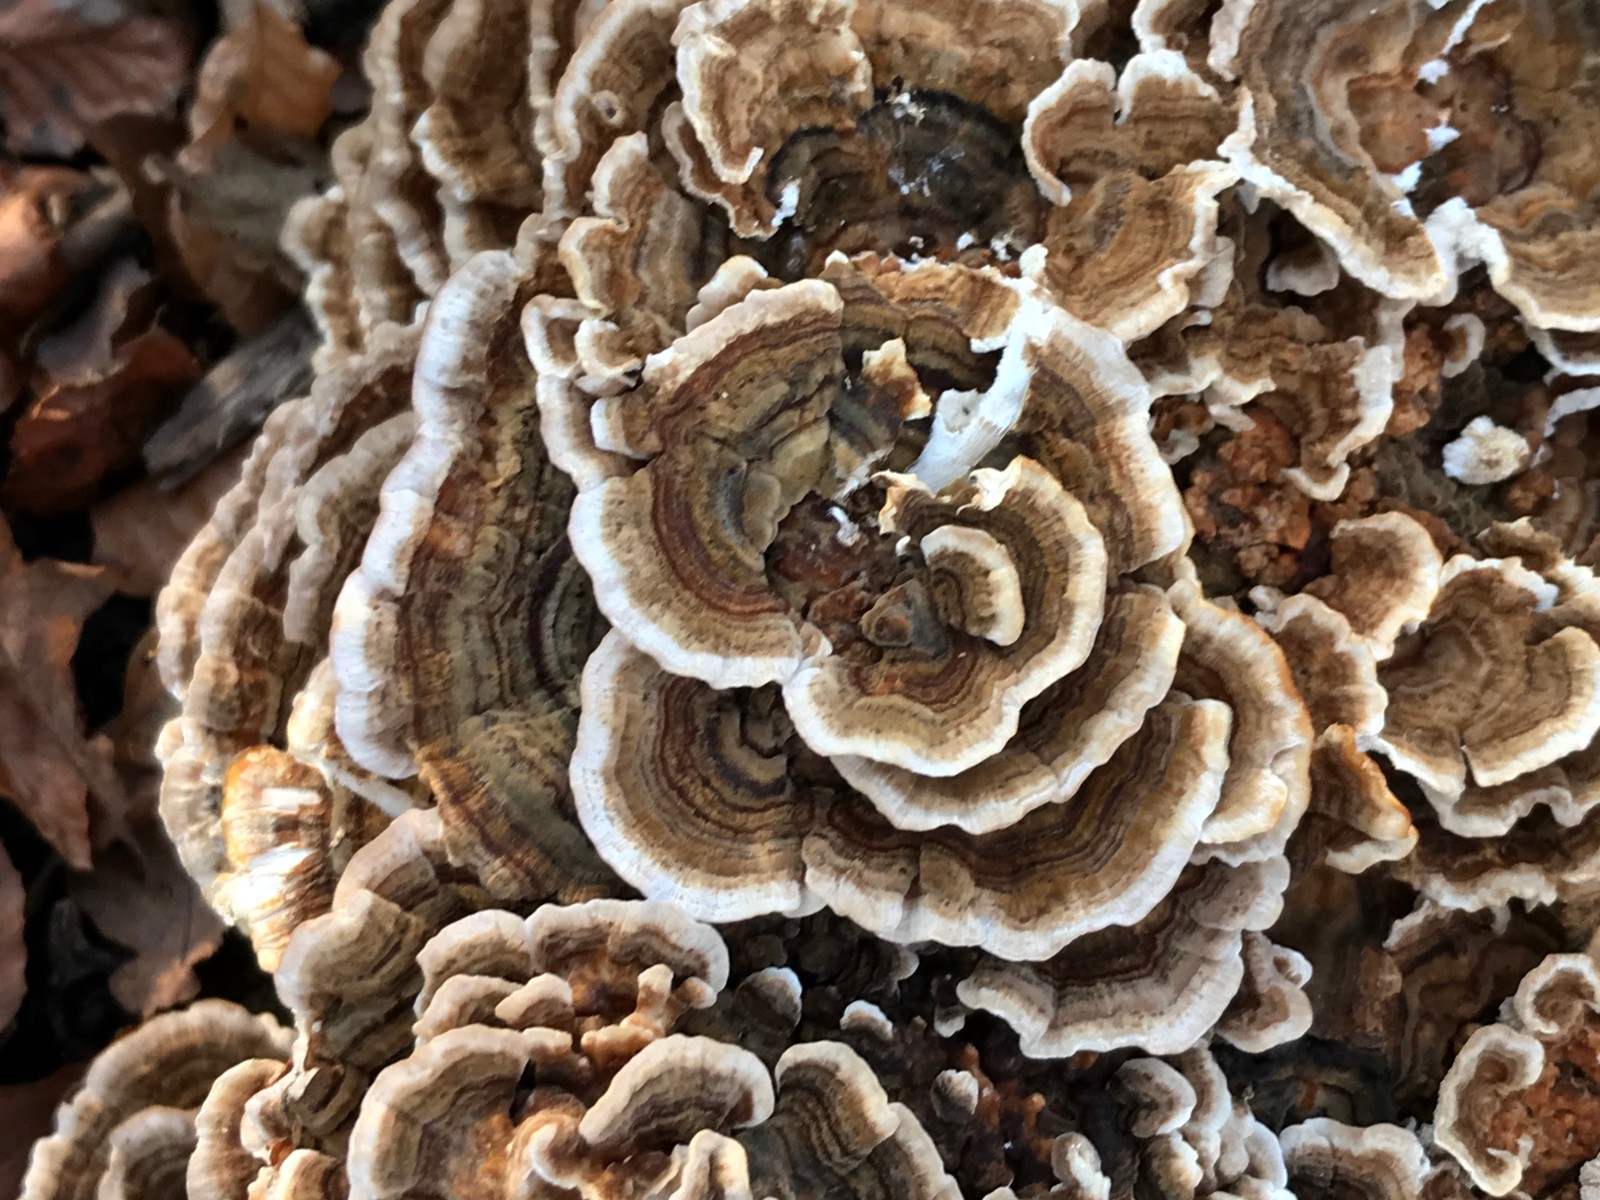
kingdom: Fungi
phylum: Basidiomycota
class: Agaricomycetes
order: Polyporales
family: Polyporaceae
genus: Trametes
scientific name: Trametes versicolor
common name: broget læderporesvamp
